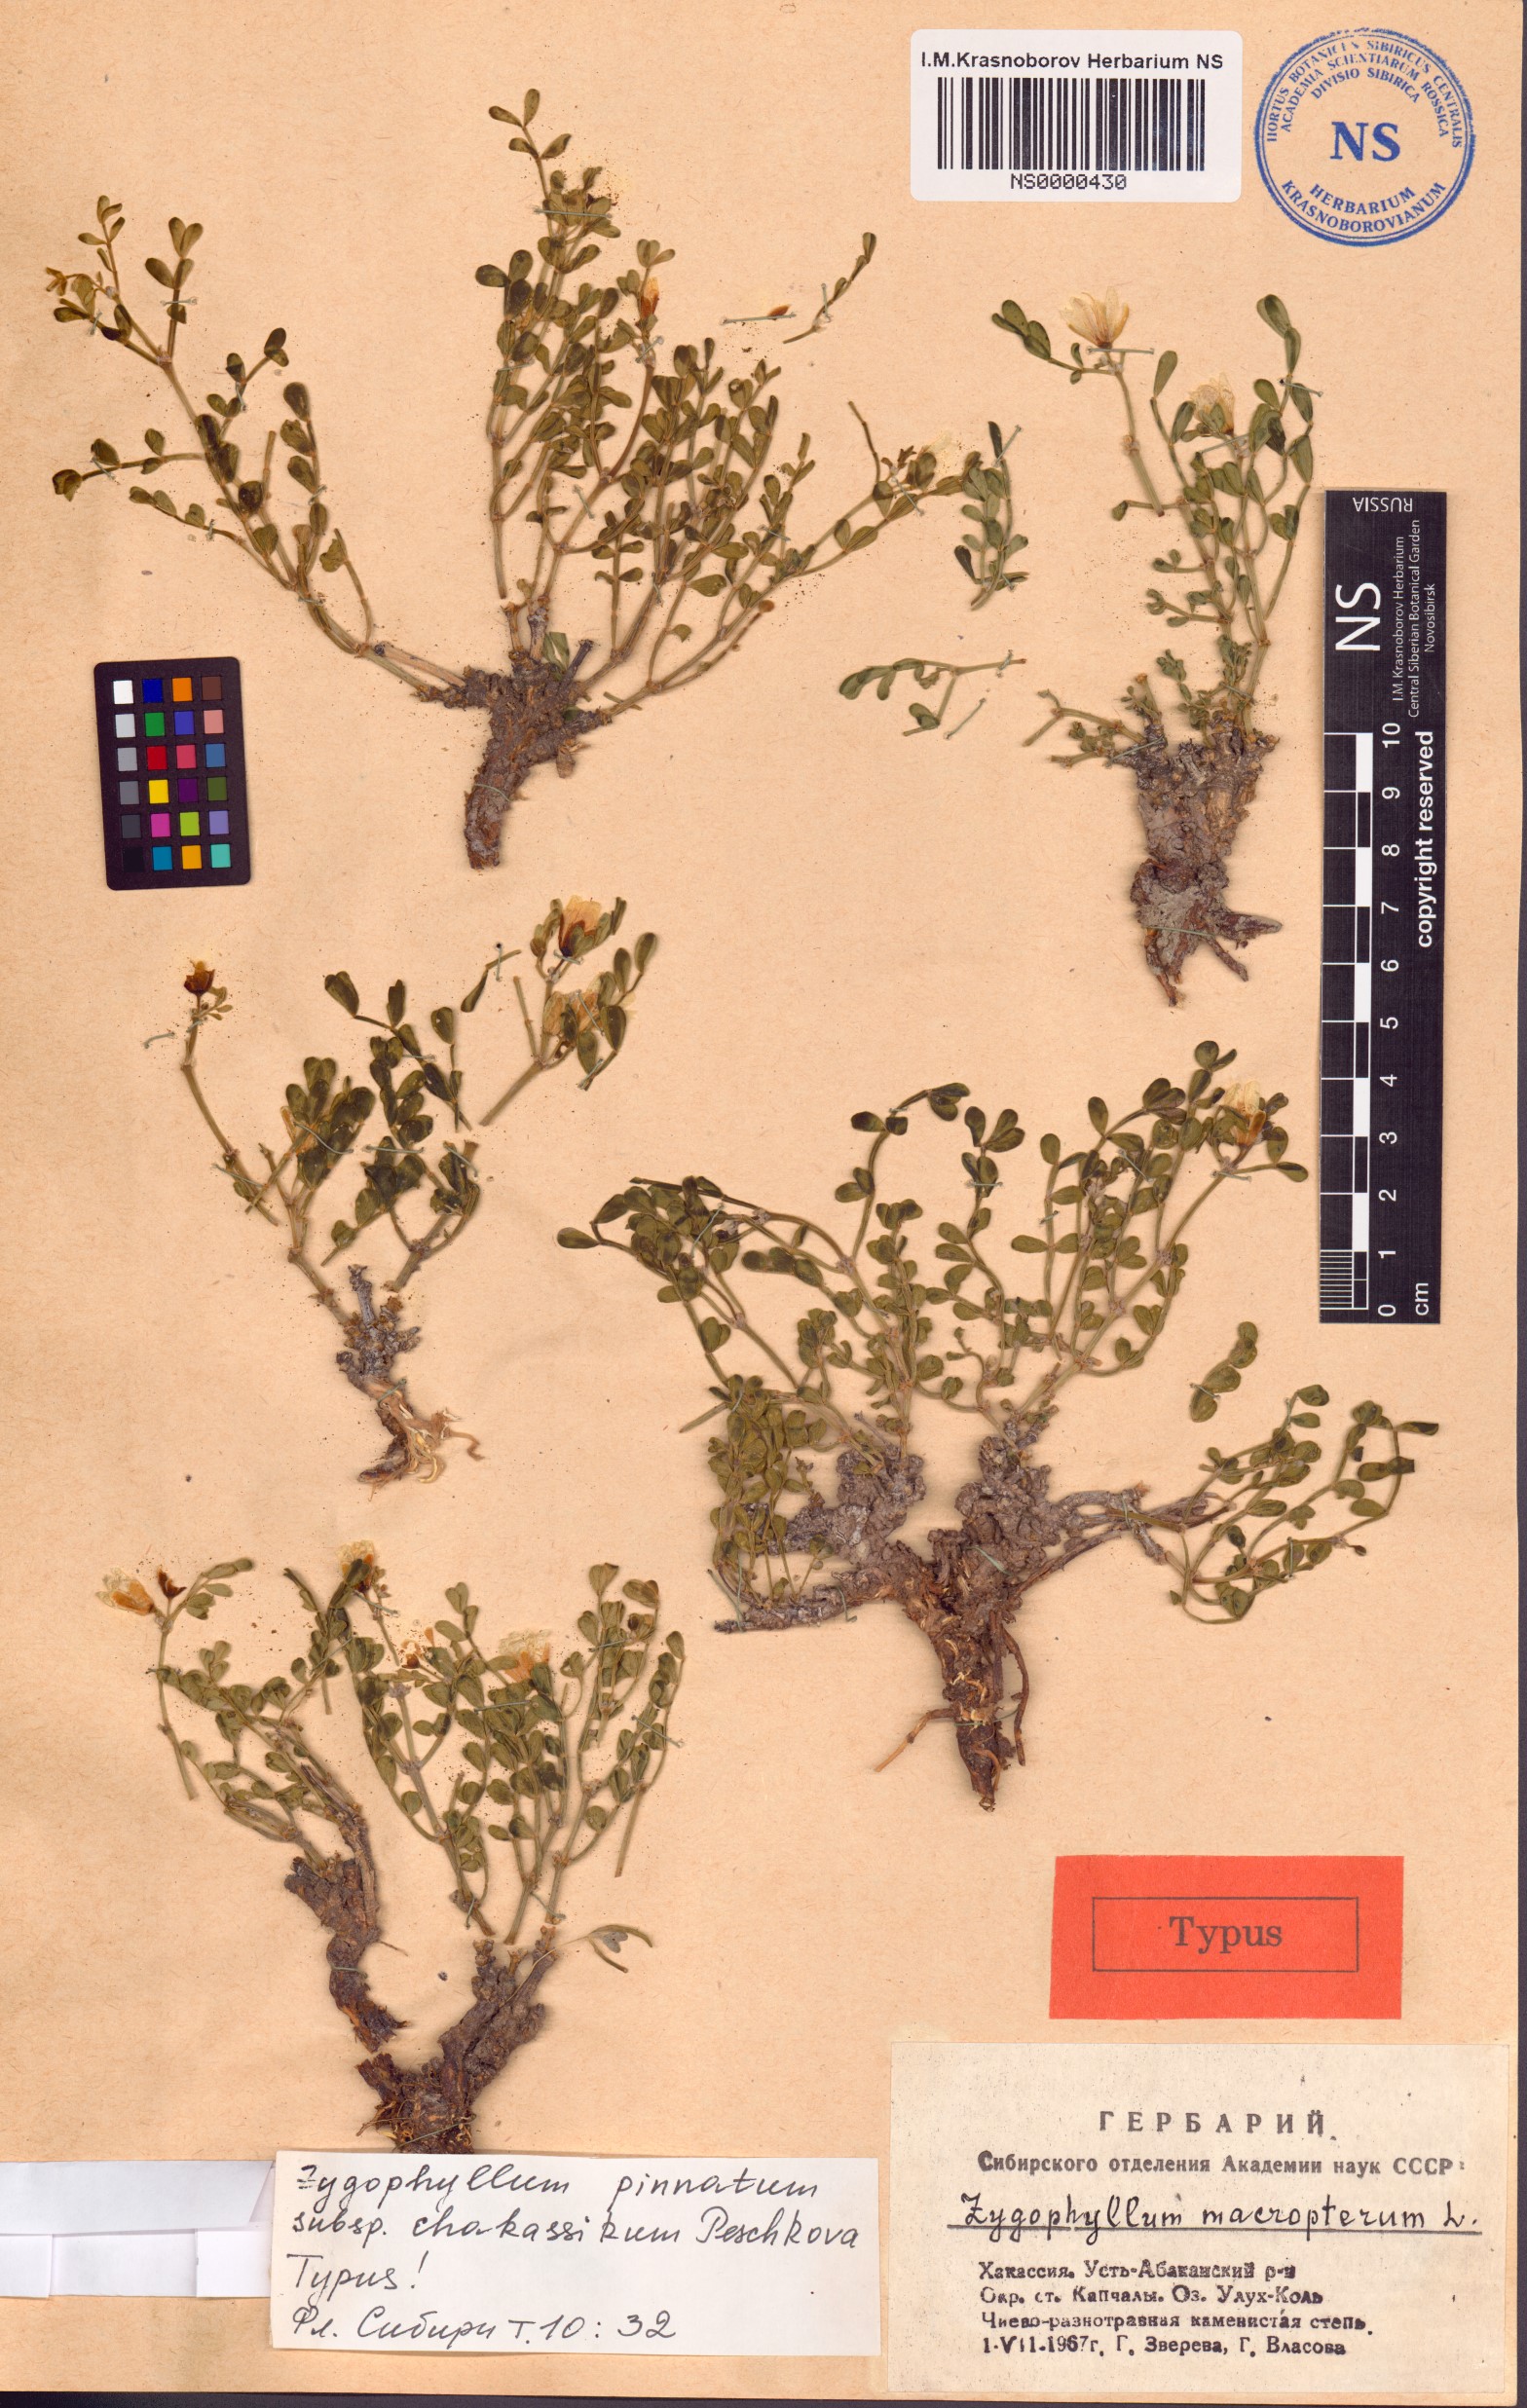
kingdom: Plantae
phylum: Tracheophyta
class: Magnoliopsida
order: Zygophyllales
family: Zygophyllaceae
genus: Zygophyllum
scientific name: Zygophyllum pinnatum
